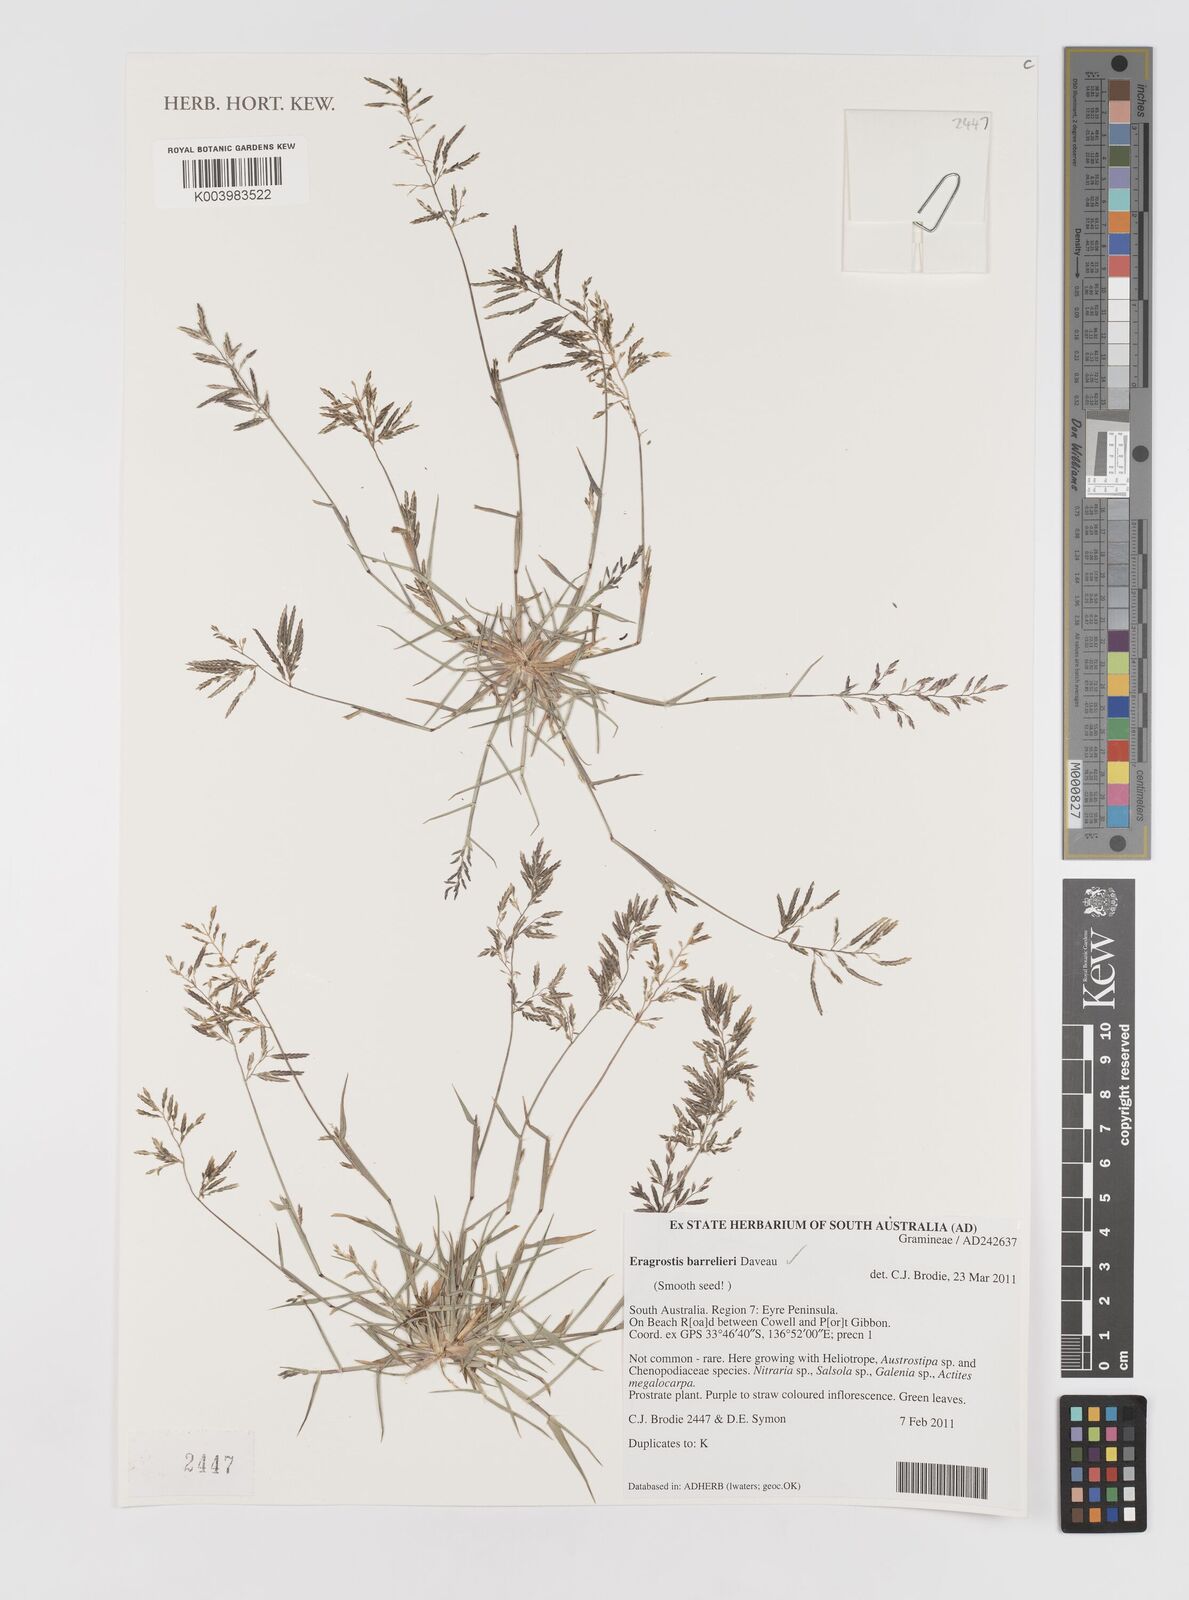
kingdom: Plantae
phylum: Tracheophyta
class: Liliopsida
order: Poales
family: Poaceae
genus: Eragrostis
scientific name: Eragrostis barrelieri
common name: Mediterranean lovegrass
